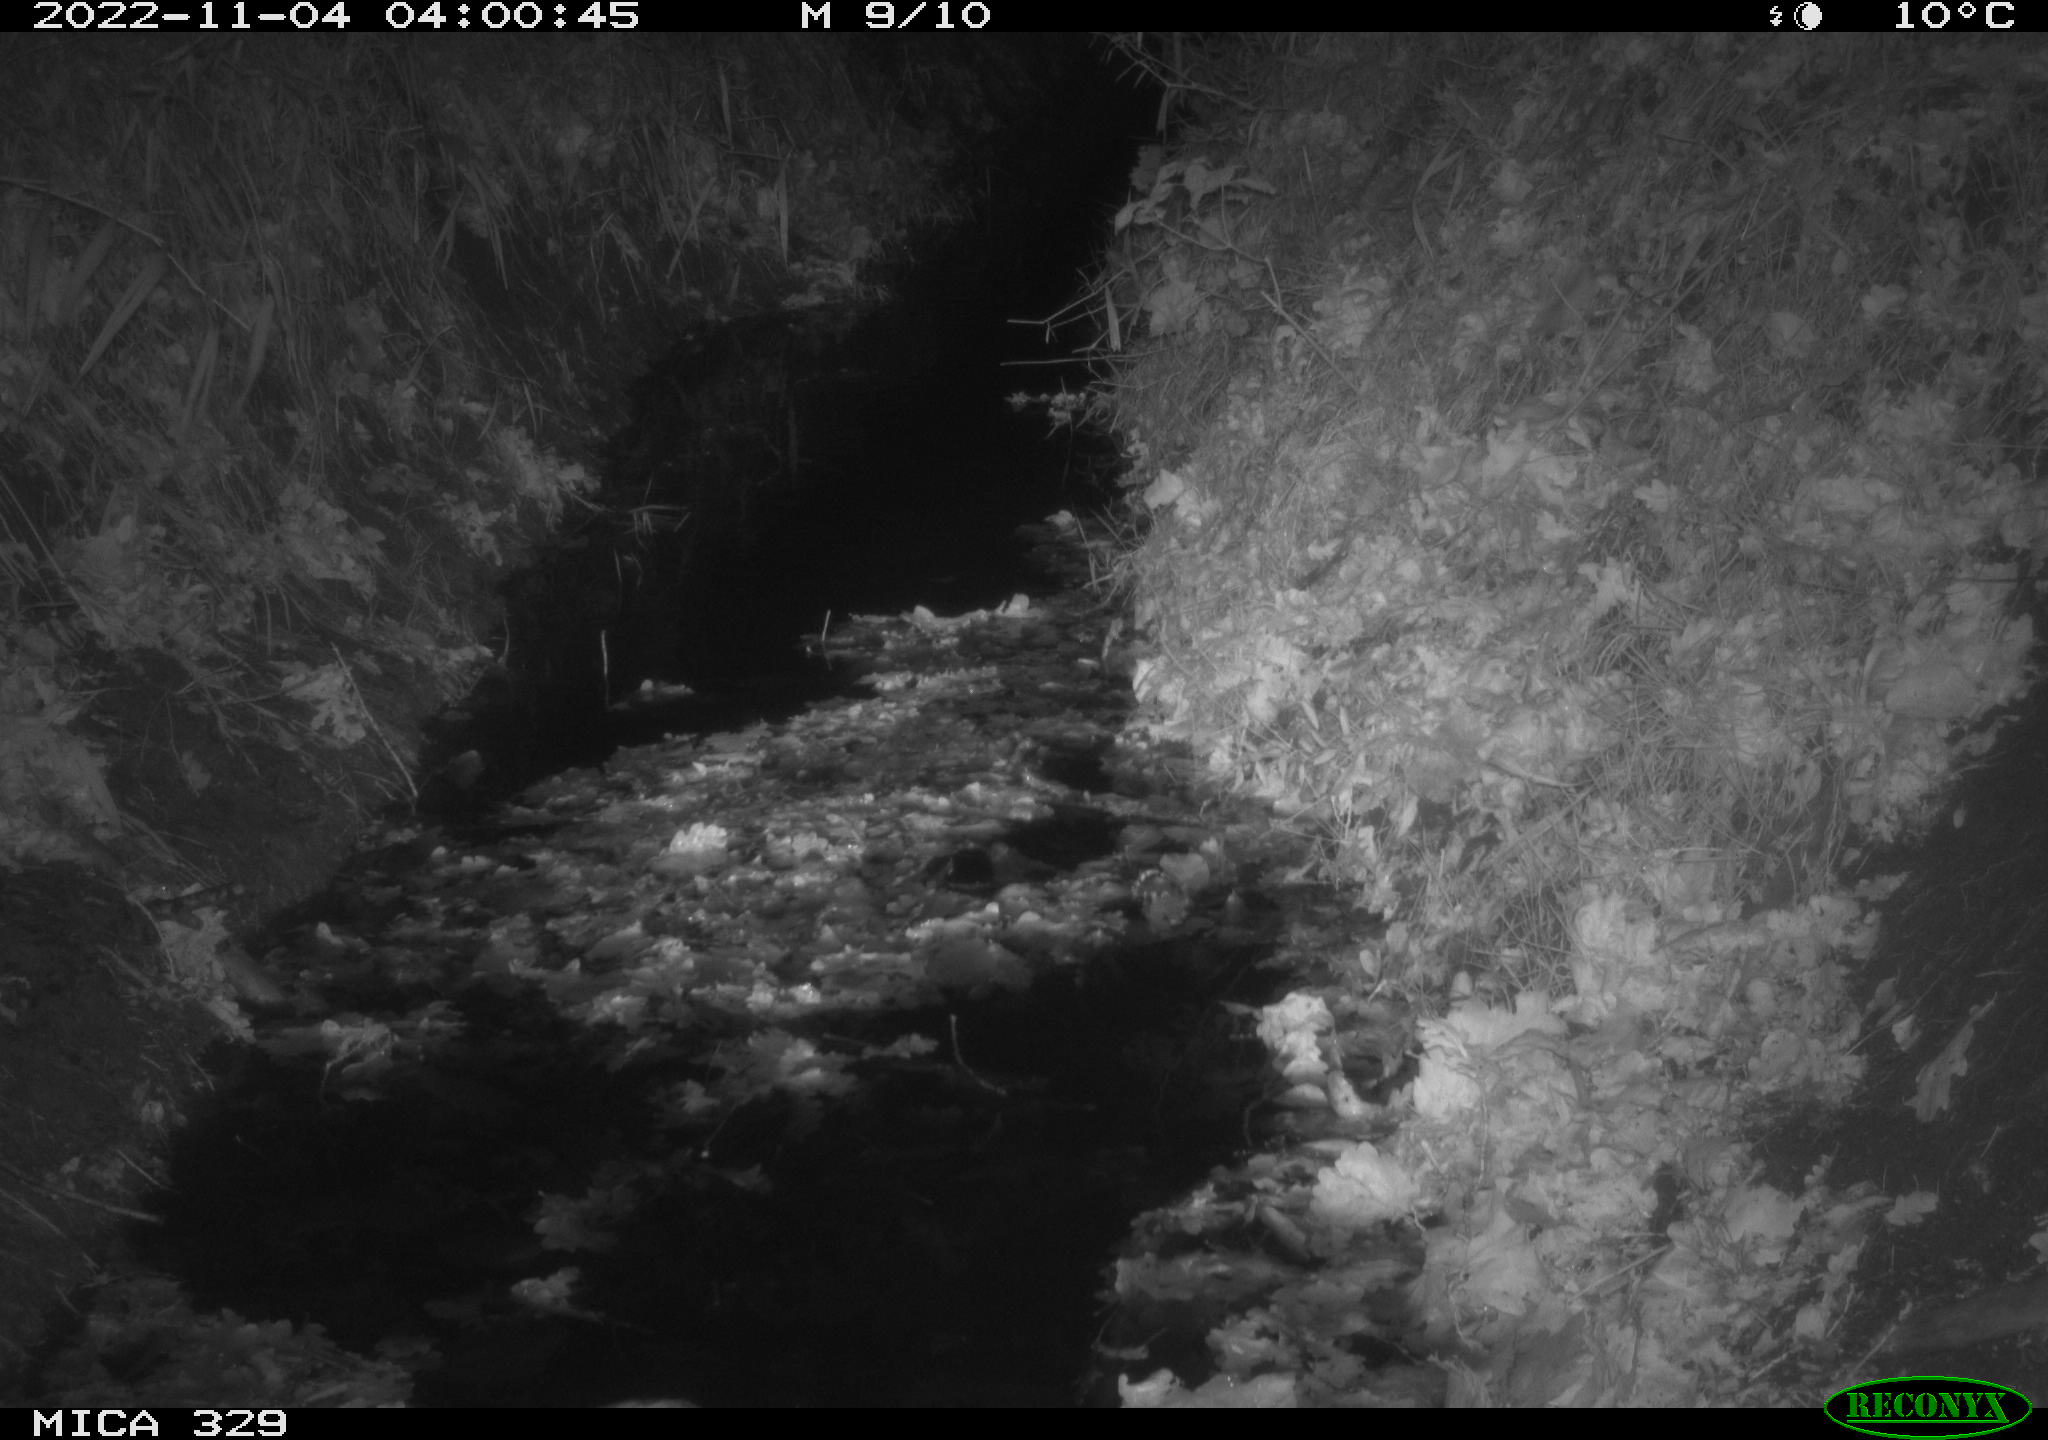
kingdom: Animalia
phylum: Chordata
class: Mammalia
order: Rodentia
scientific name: Rodentia
